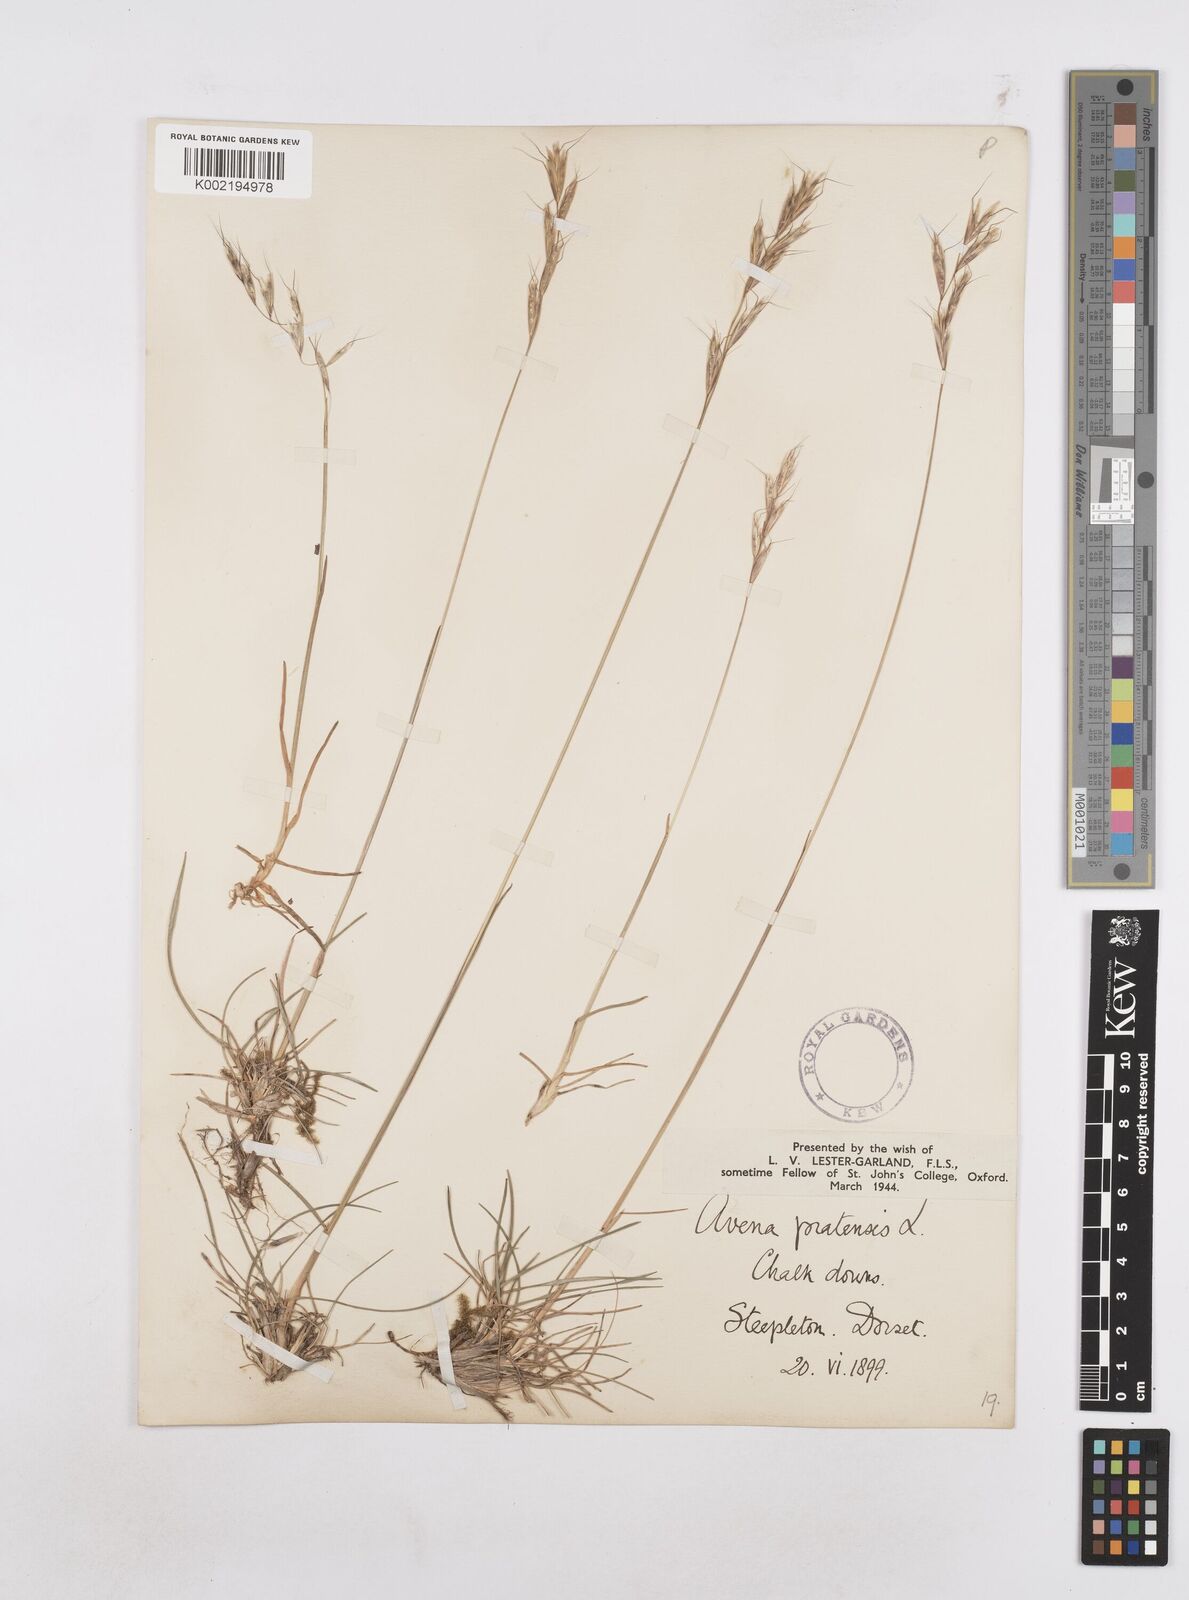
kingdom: Plantae
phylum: Tracheophyta
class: Liliopsida
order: Poales
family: Poaceae
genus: Helictochloa
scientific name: Helictochloa pratensis
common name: Meadow oat grass
